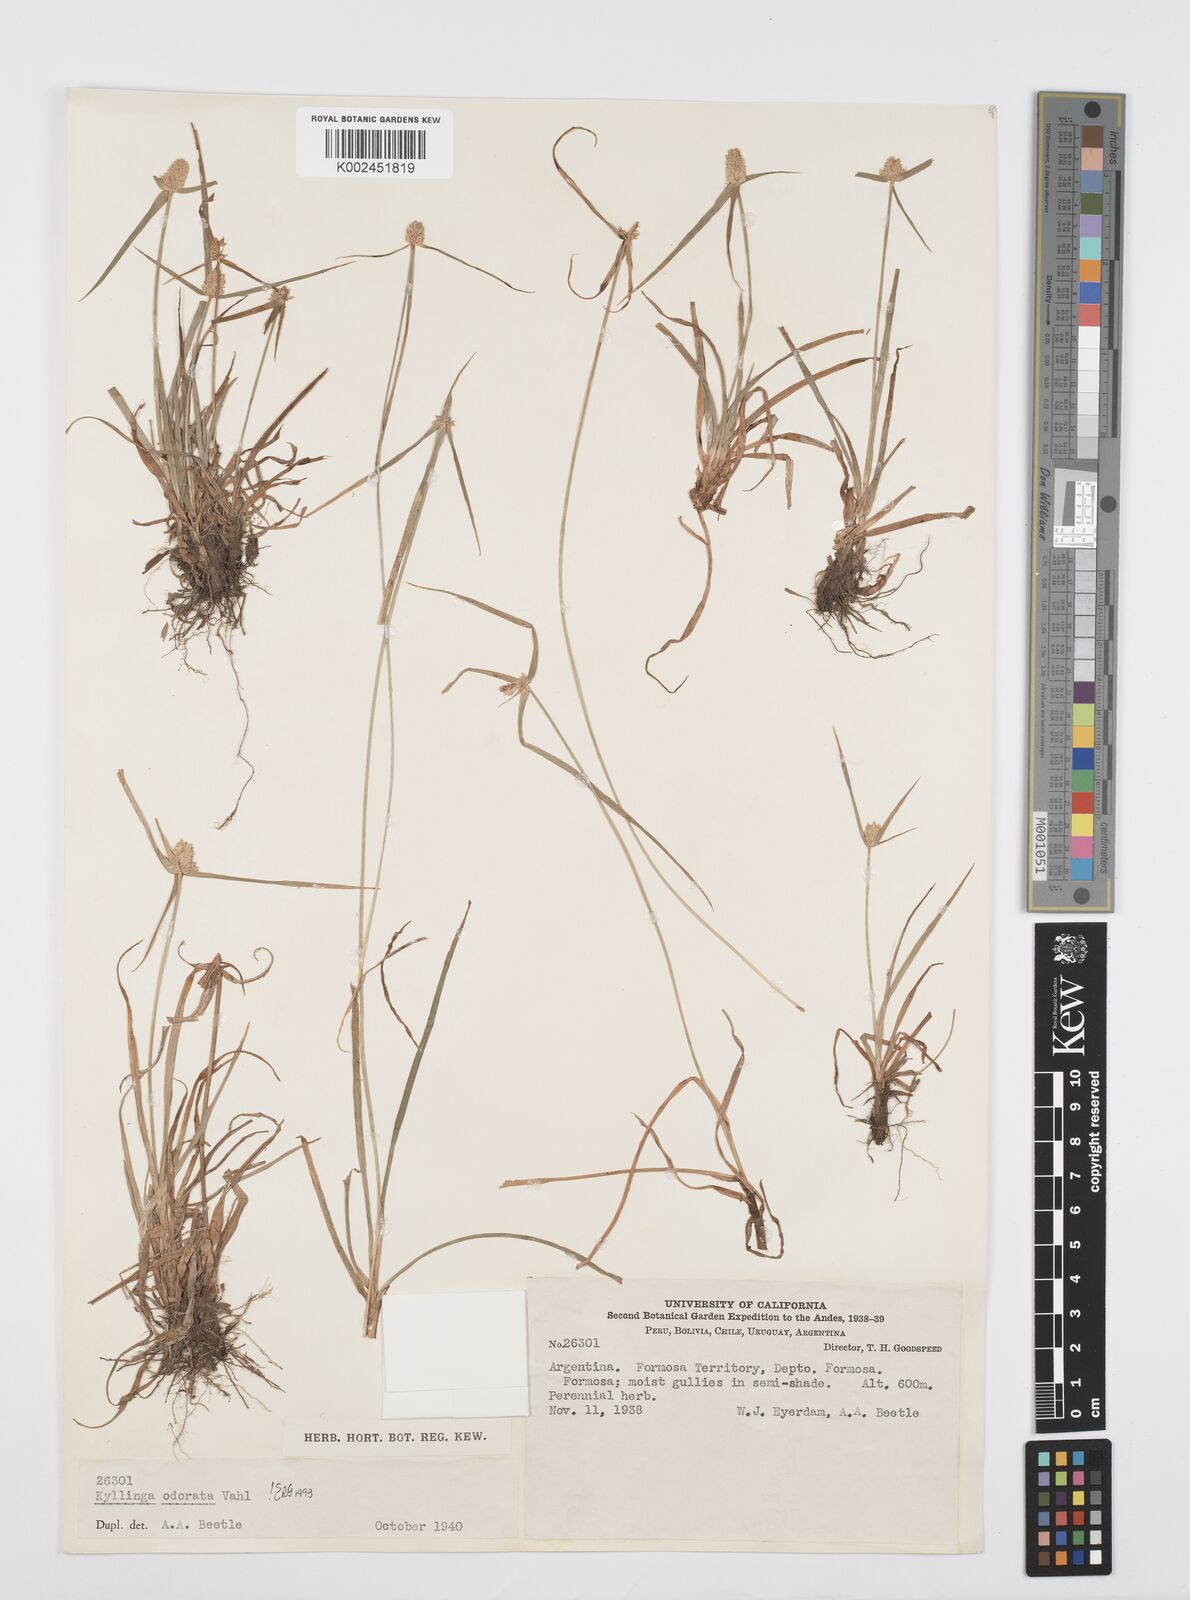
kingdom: Plantae
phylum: Tracheophyta
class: Liliopsida
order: Poales
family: Cyperaceae
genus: Cyperus
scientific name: Cyperus
